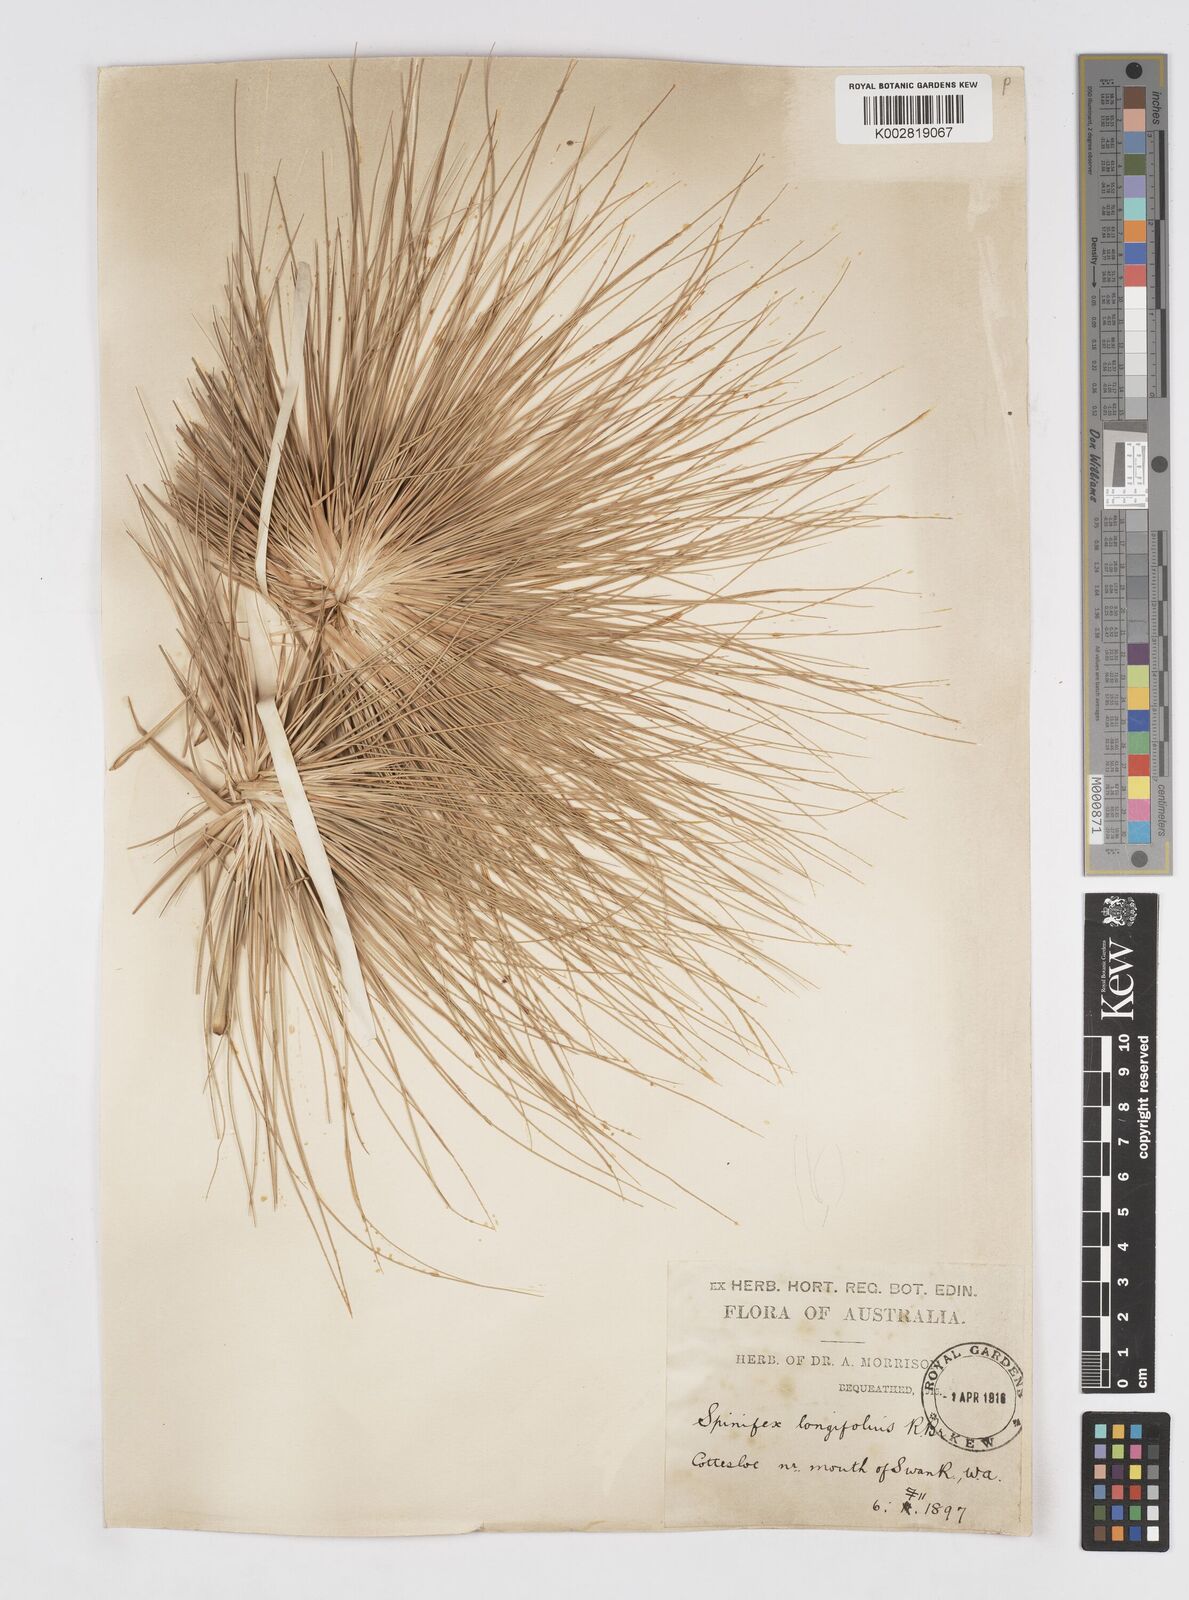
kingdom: Plantae
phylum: Tracheophyta
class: Liliopsida
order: Poales
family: Poaceae
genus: Spinifex
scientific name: Spinifex longifolius
